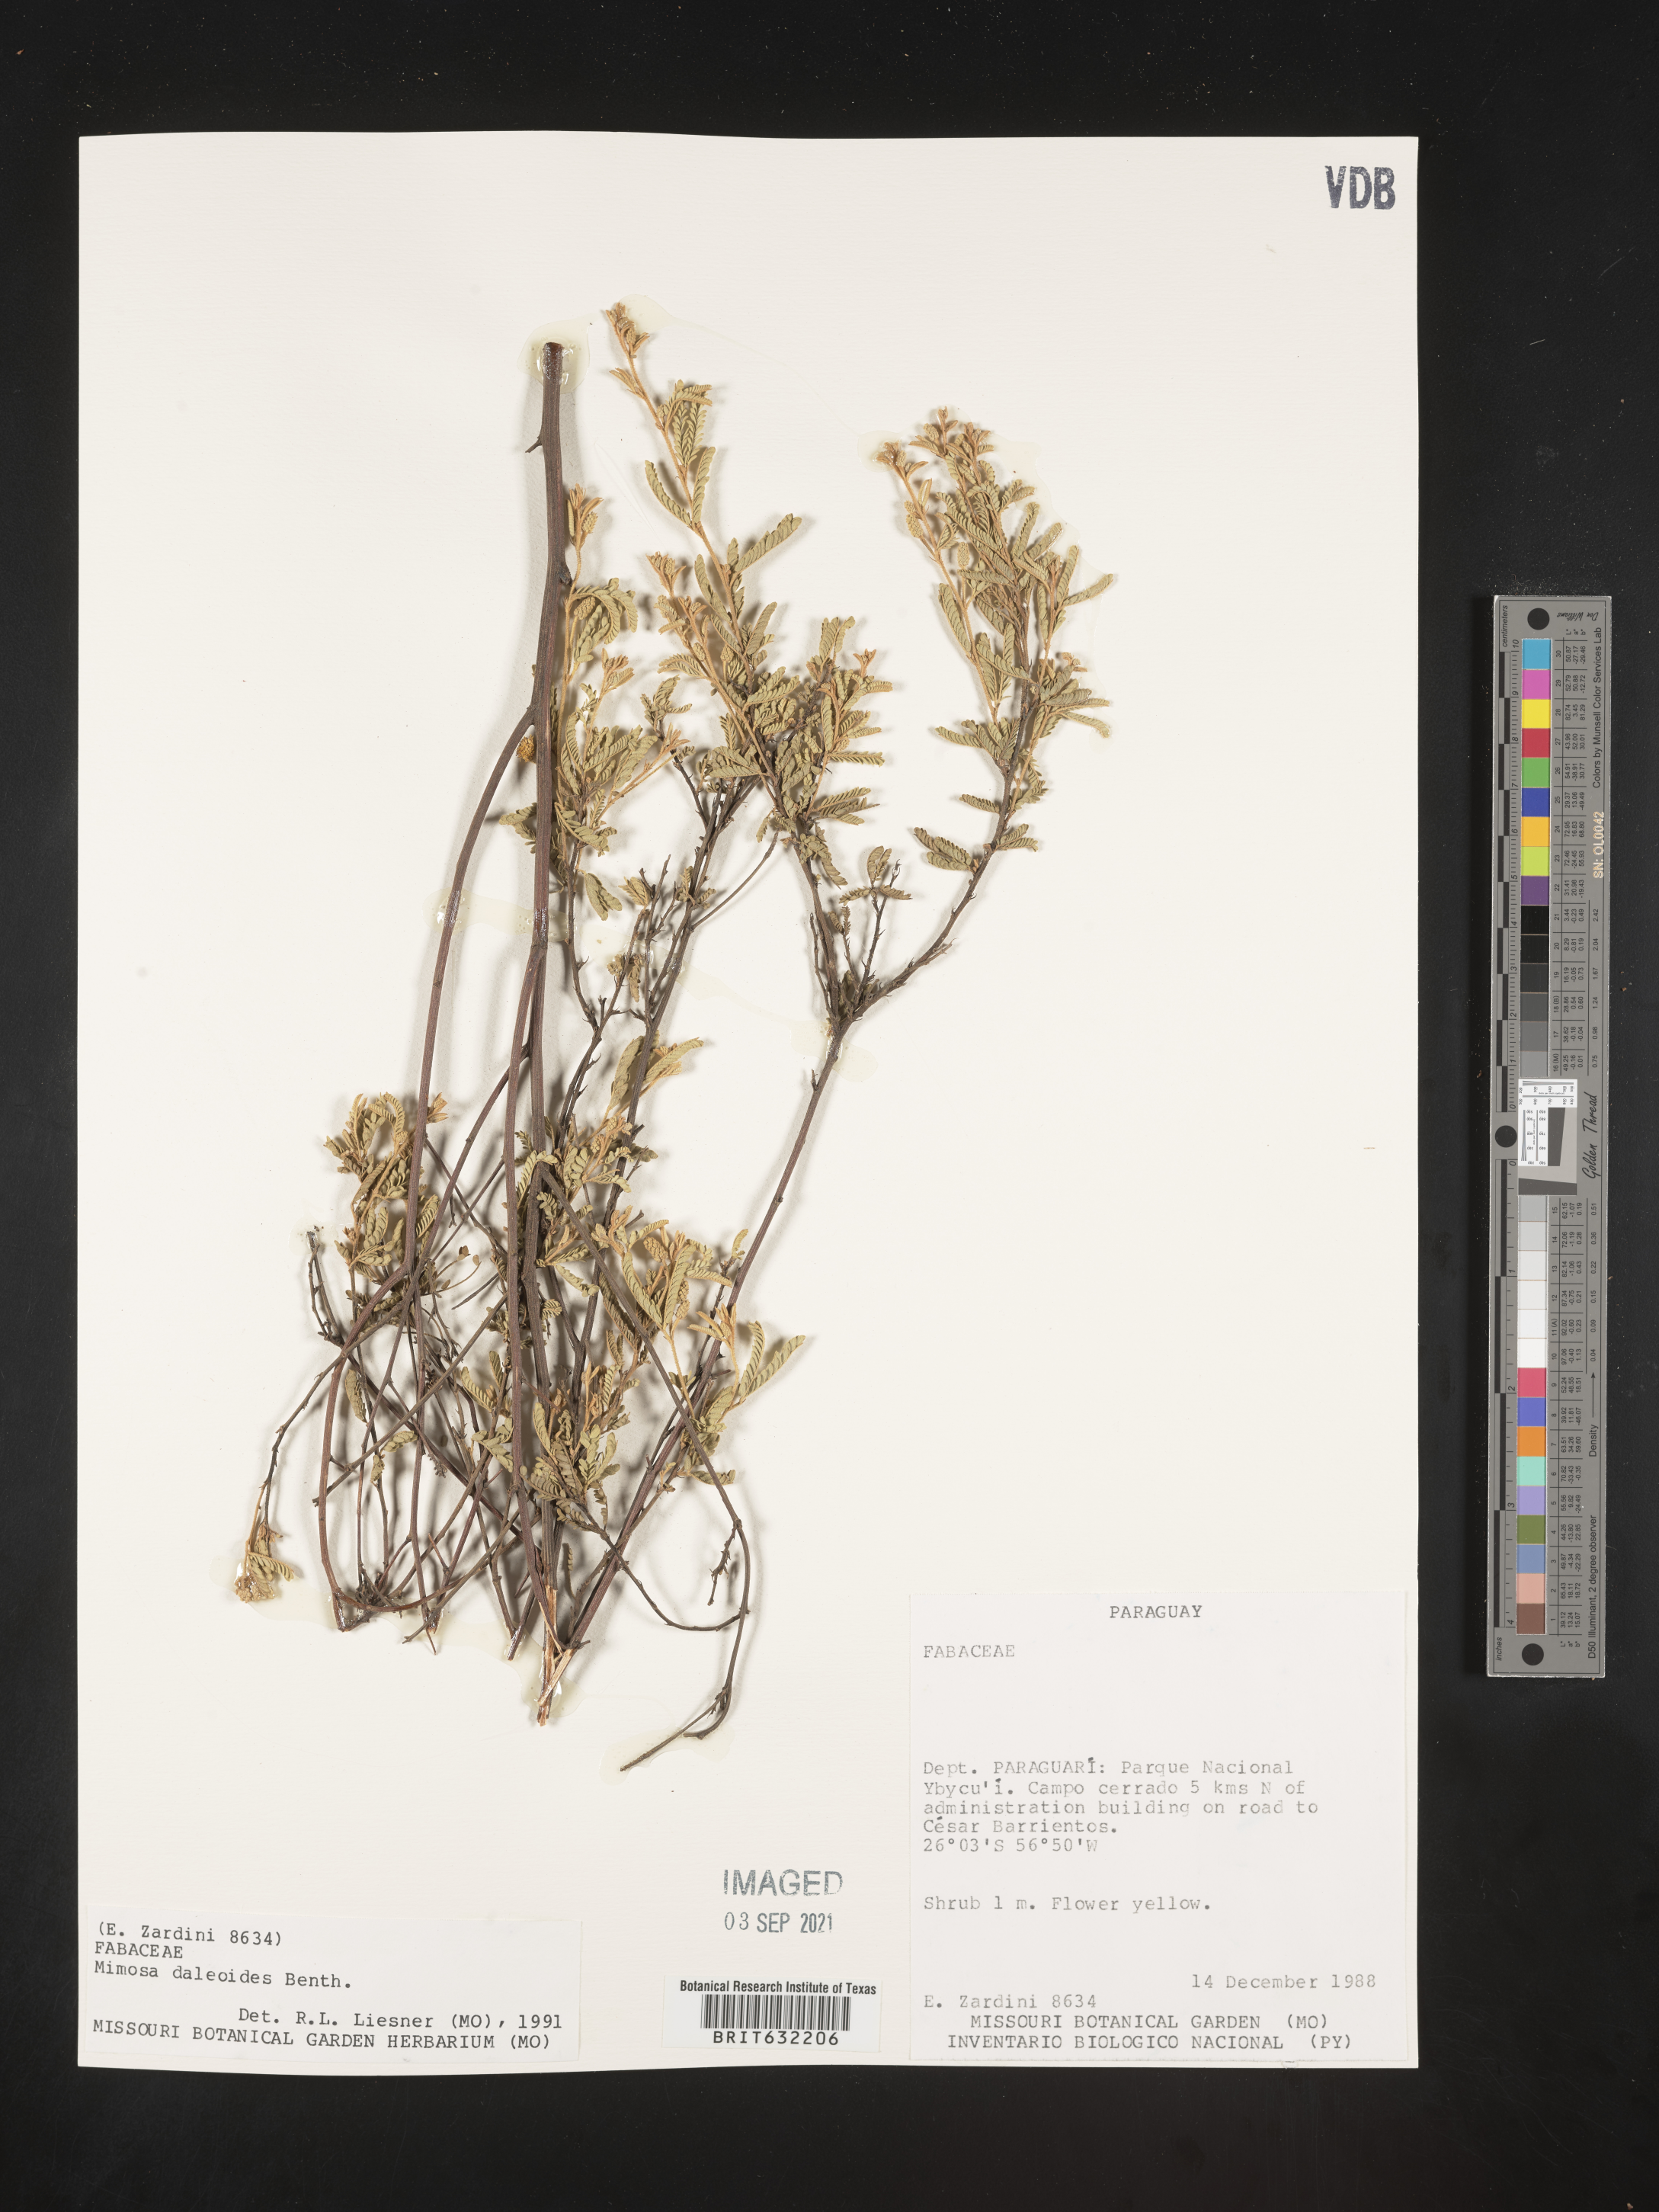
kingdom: Plantae
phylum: Tracheophyta
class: Magnoliopsida
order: Fabales
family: Fabaceae
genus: Mimosa
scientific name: Mimosa
